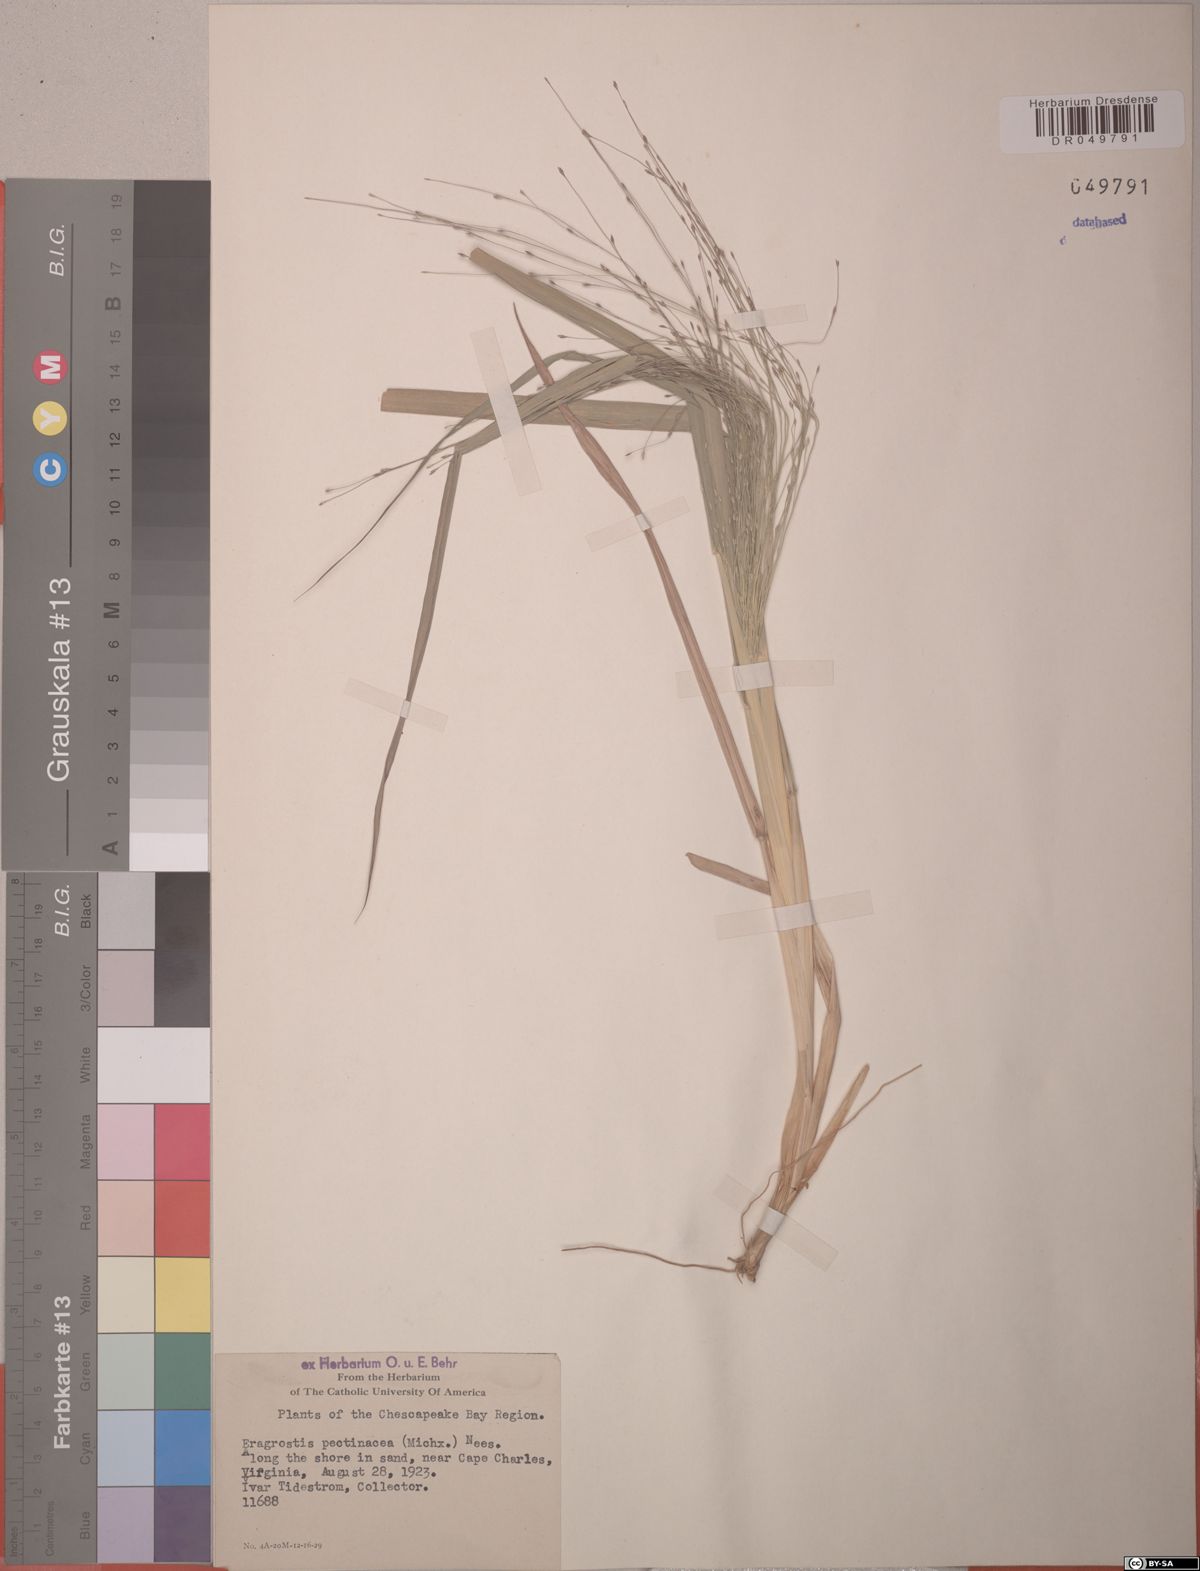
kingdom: Plantae
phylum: Tracheophyta
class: Liliopsida
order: Poales
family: Poaceae
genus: Eragrostis
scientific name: Eragrostis pectinacea
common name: Tufted lovegrass
